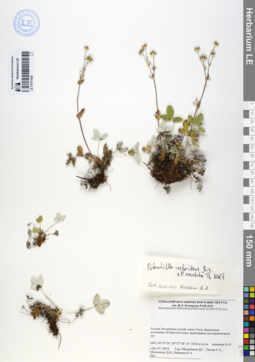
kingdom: Plantae
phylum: Tracheophyta
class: Magnoliopsida
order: Rosales
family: Rosaceae
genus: Potentilla
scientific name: Potentilla crebridens
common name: Congested cinquefoil
